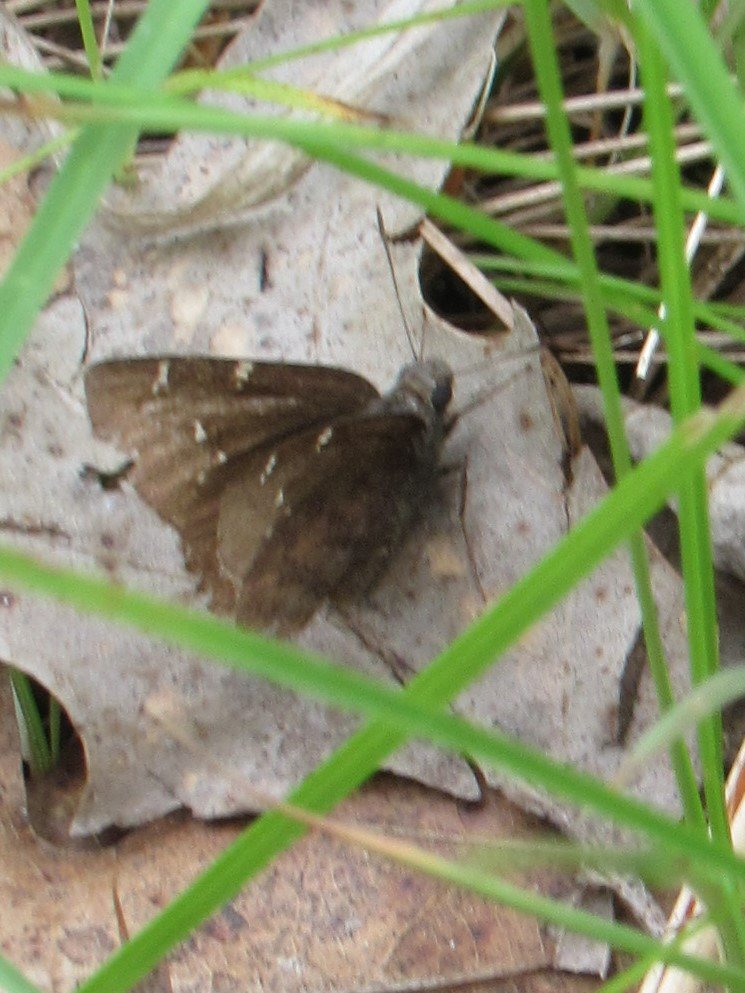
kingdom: Animalia
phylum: Arthropoda
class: Insecta
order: Lepidoptera
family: Hesperiidae
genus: Autochton
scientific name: Autochton
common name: Northern Cloudywing
